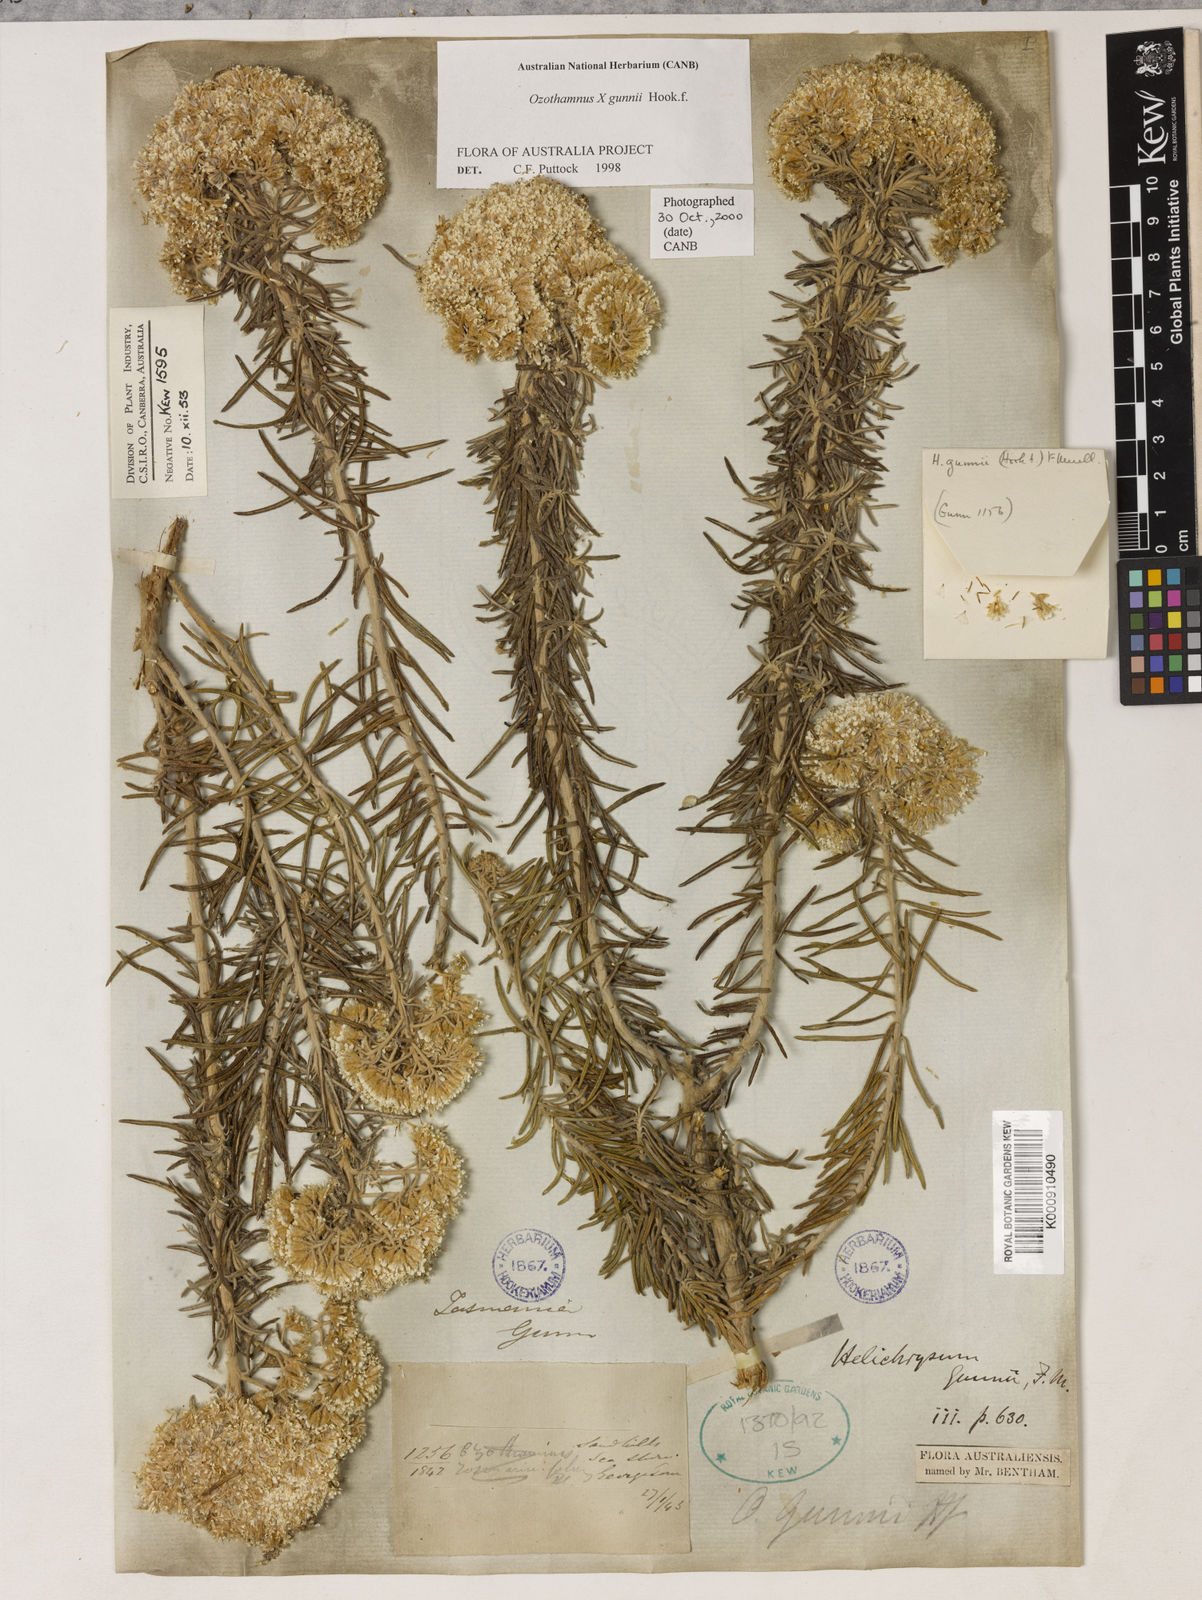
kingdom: Plantae
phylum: Tracheophyta
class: Magnoliopsida
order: Asterales
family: Asteraceae
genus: Ozothamnus
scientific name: Ozothamnus gunnii
